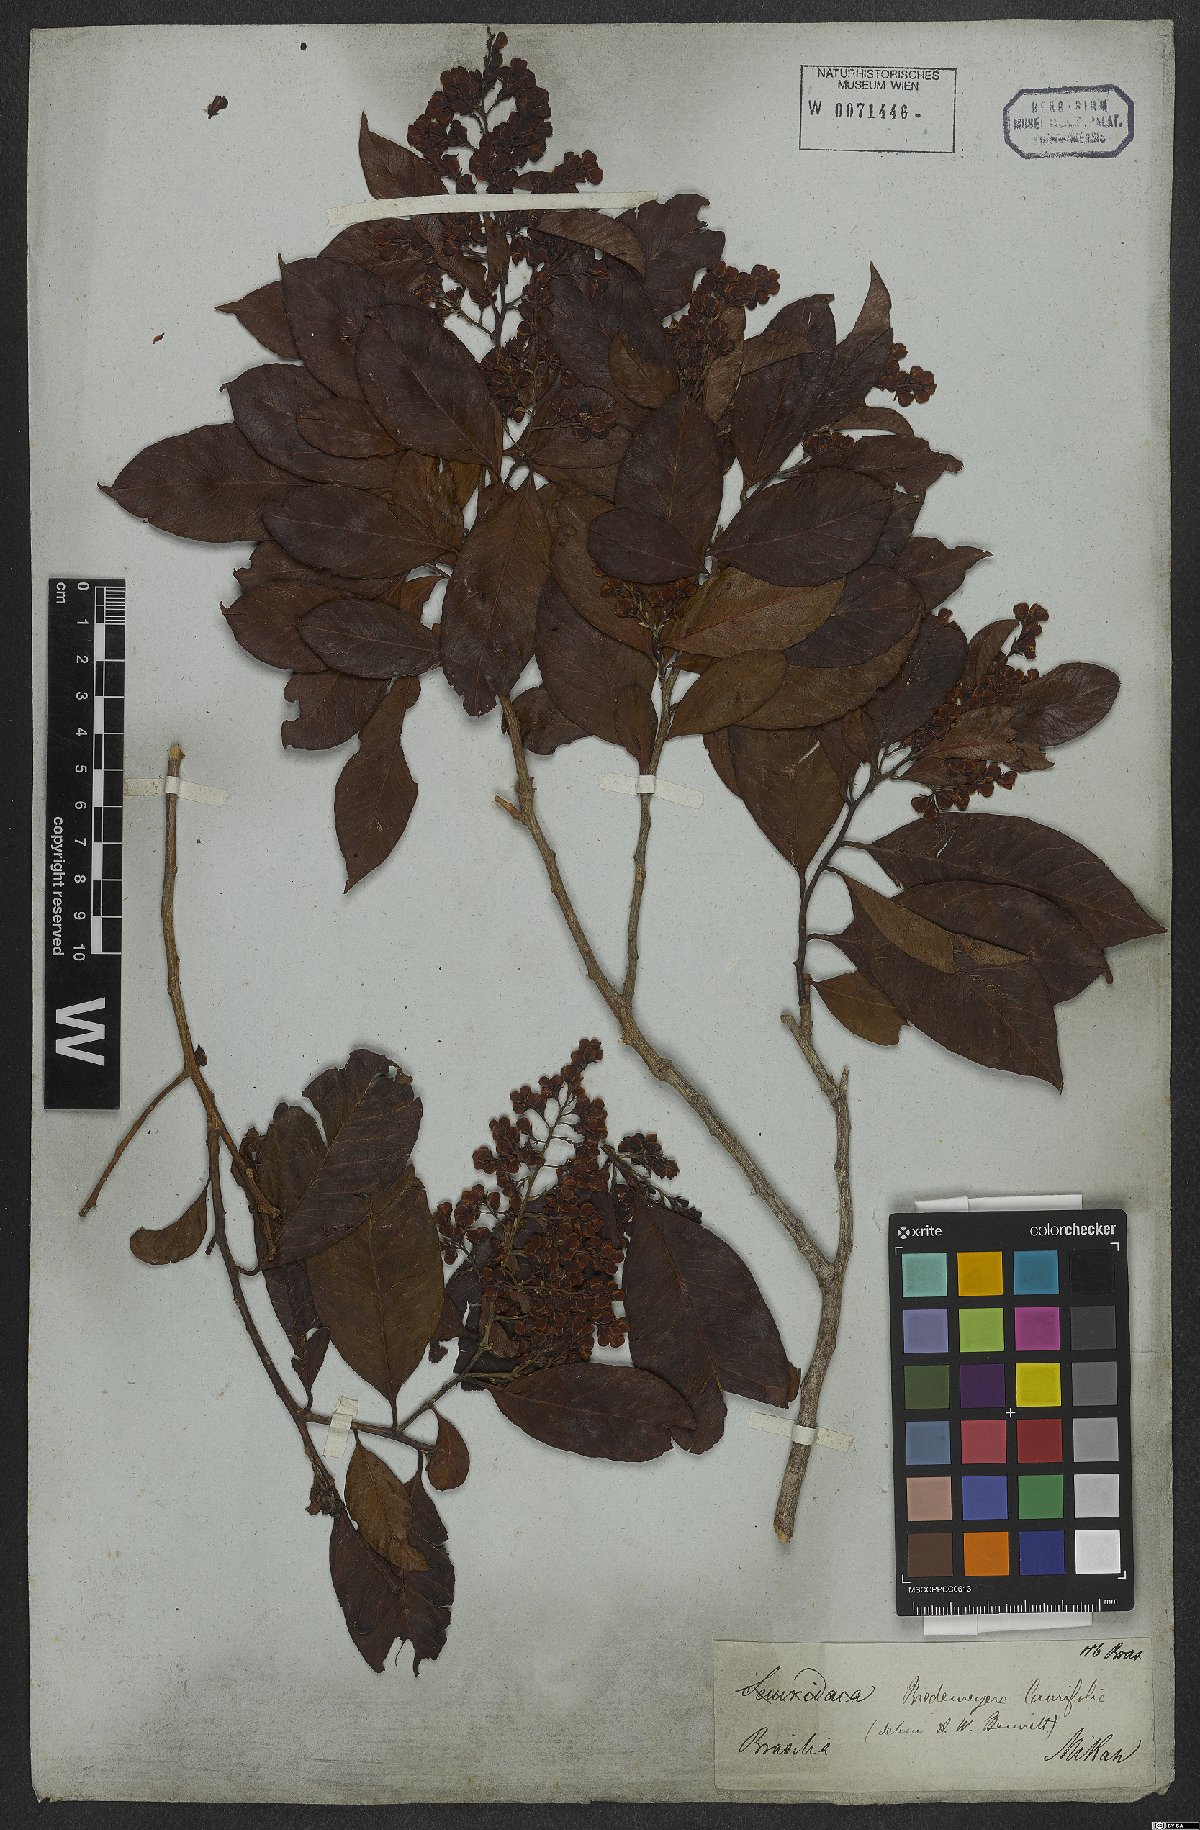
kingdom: Plantae
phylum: Tracheophyta
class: Magnoliopsida
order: Fabales
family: Polygalaceae
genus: Bredemeyera
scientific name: Bredemeyera laurifolia
